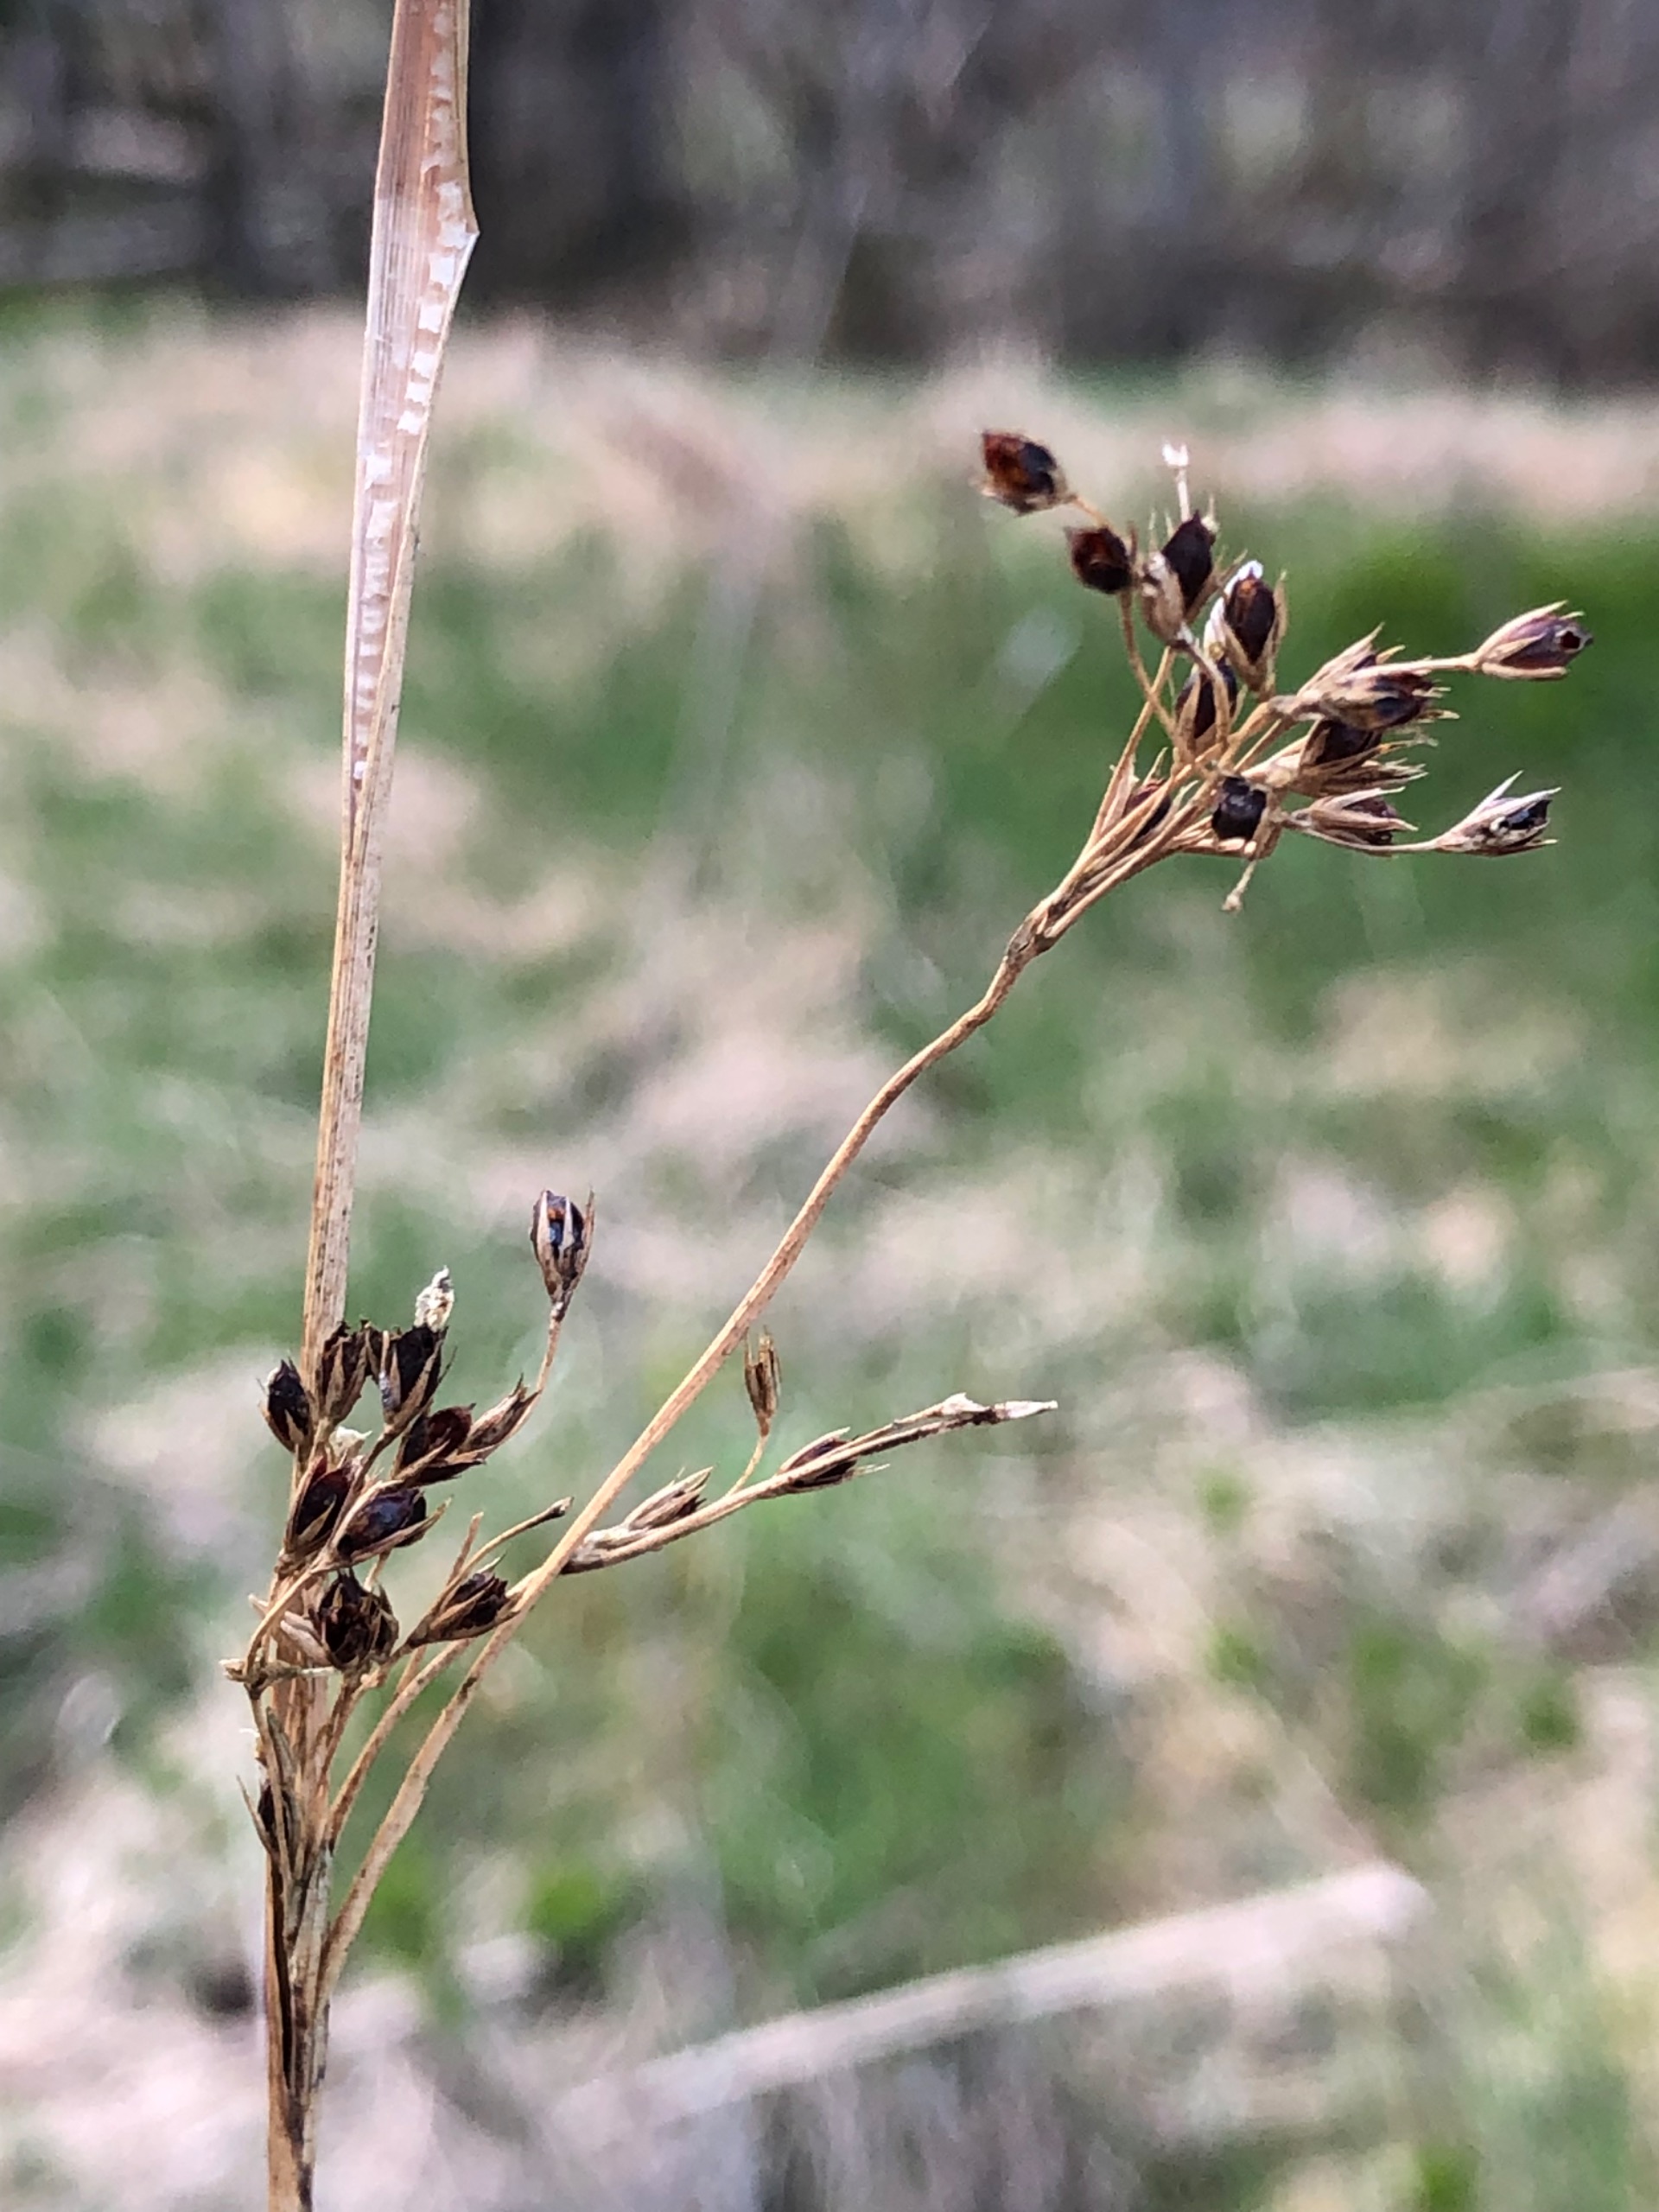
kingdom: Plantae
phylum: Tracheophyta
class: Liliopsida
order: Poales
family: Juncaceae
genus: Juncus
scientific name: Juncus inflexus
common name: Blågrå siv
